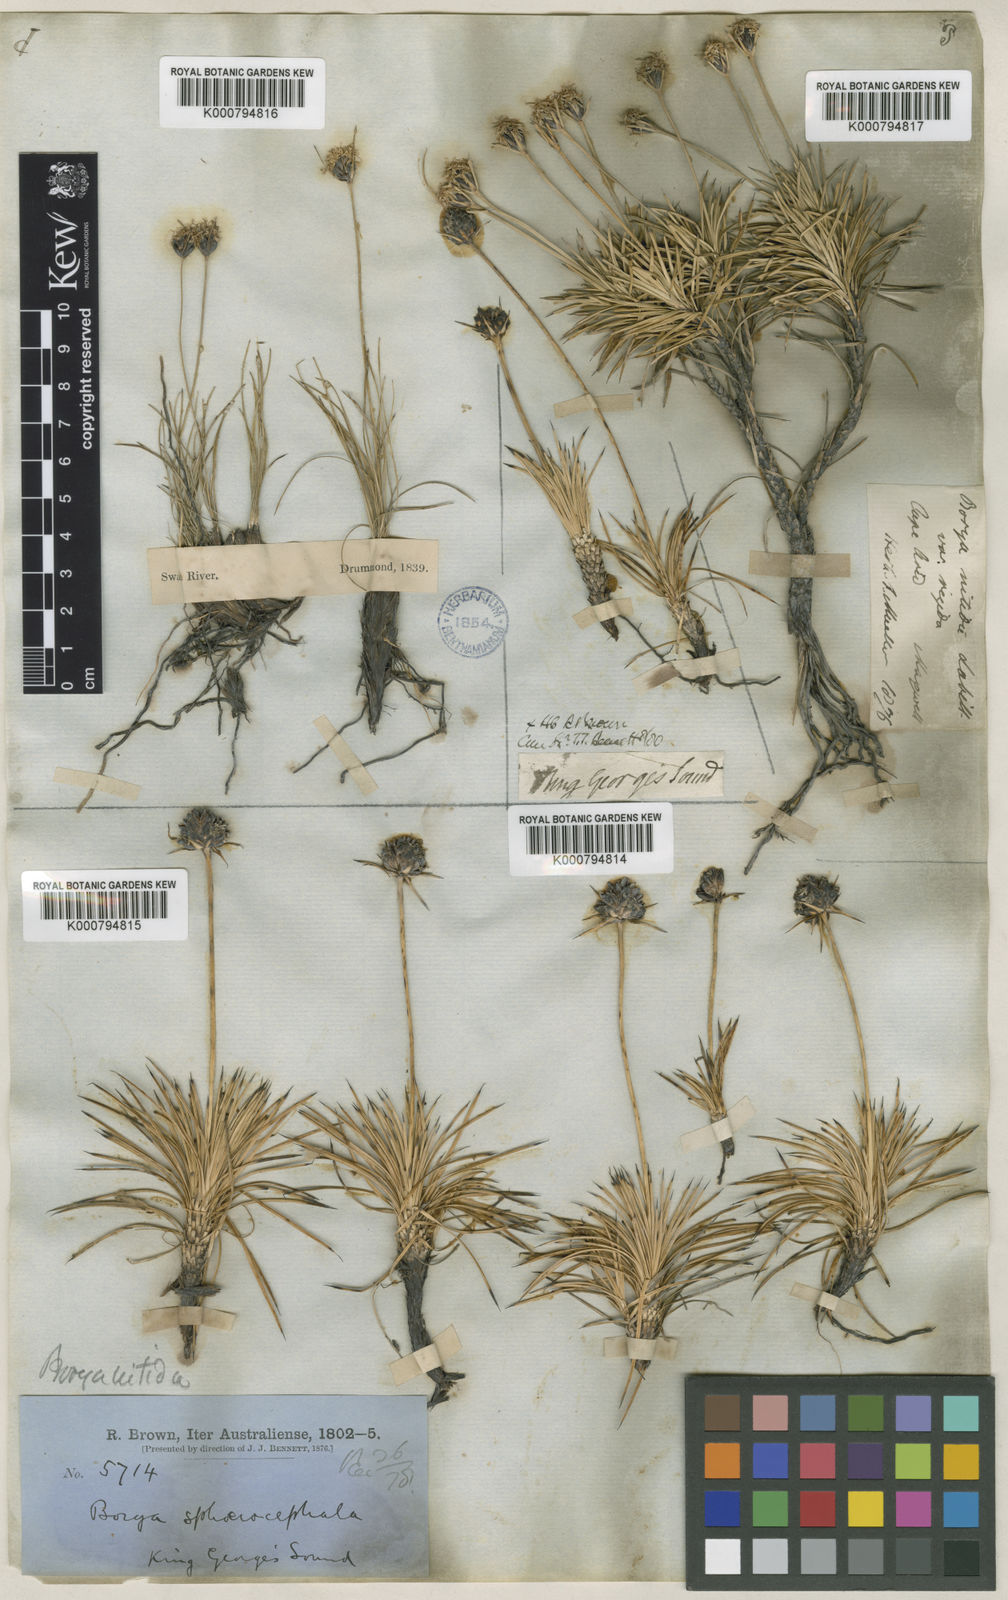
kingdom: Plantae
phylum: Tracheophyta
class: Liliopsida
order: Asparagales
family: Boryaceae
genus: Borya
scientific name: Borya nitida
